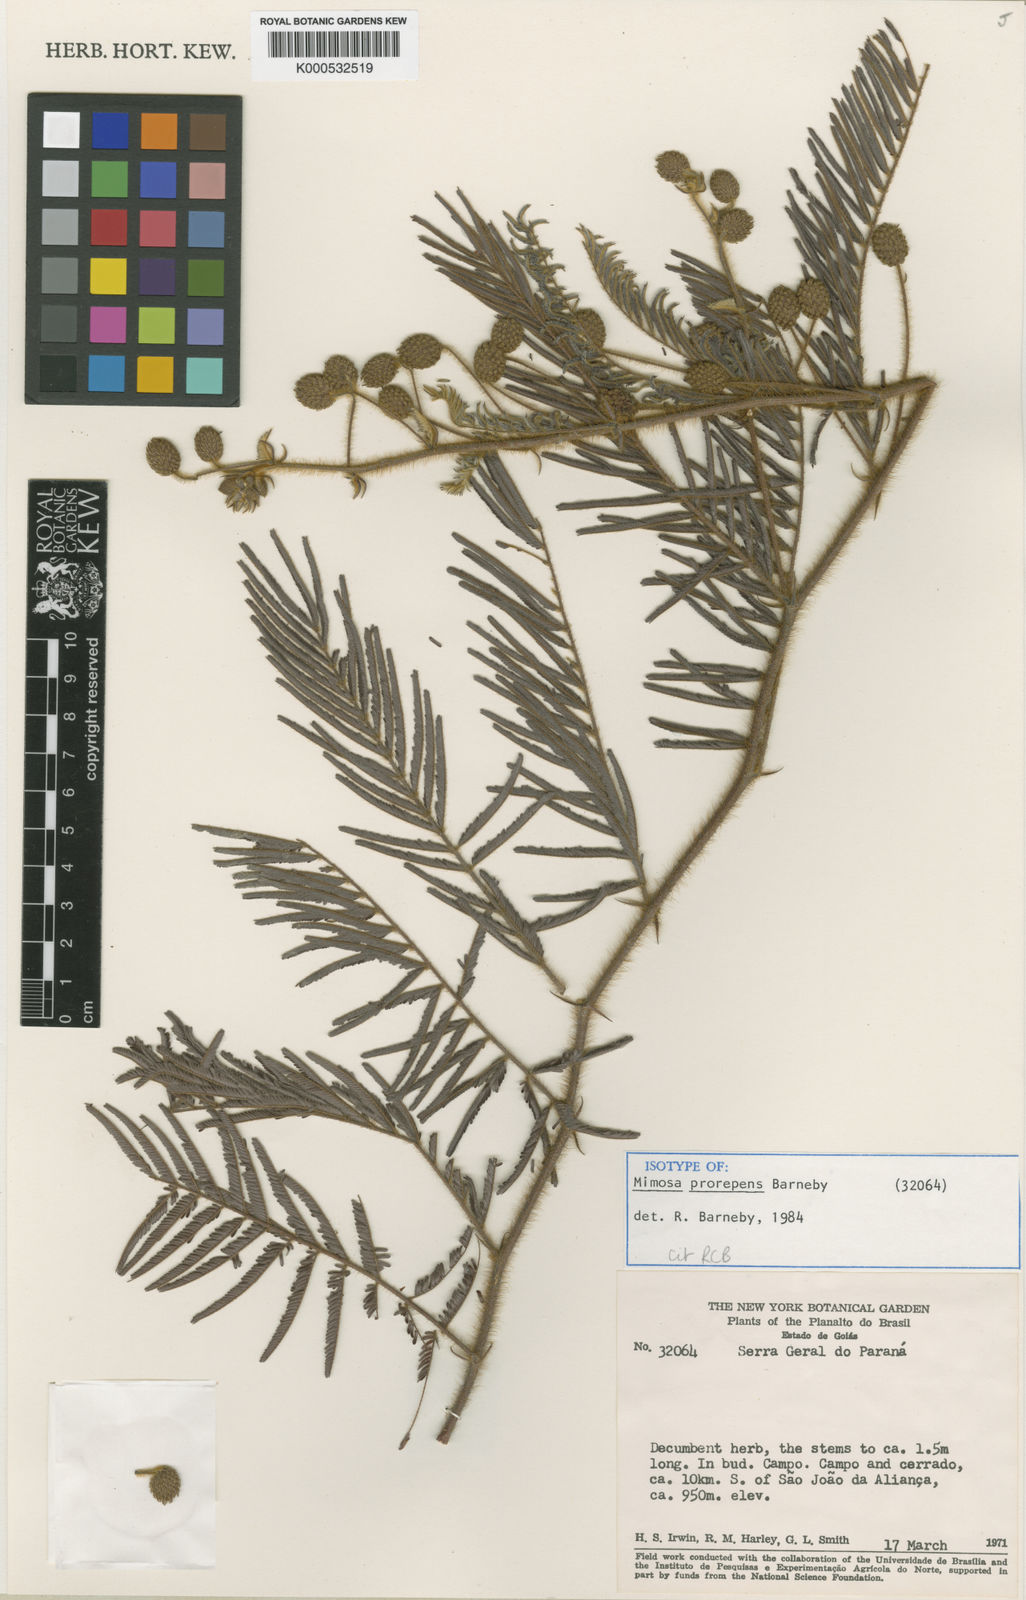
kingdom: Plantae
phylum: Tracheophyta
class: Magnoliopsida
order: Fabales
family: Fabaceae
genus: Mimosa
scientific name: Mimosa prorepens
